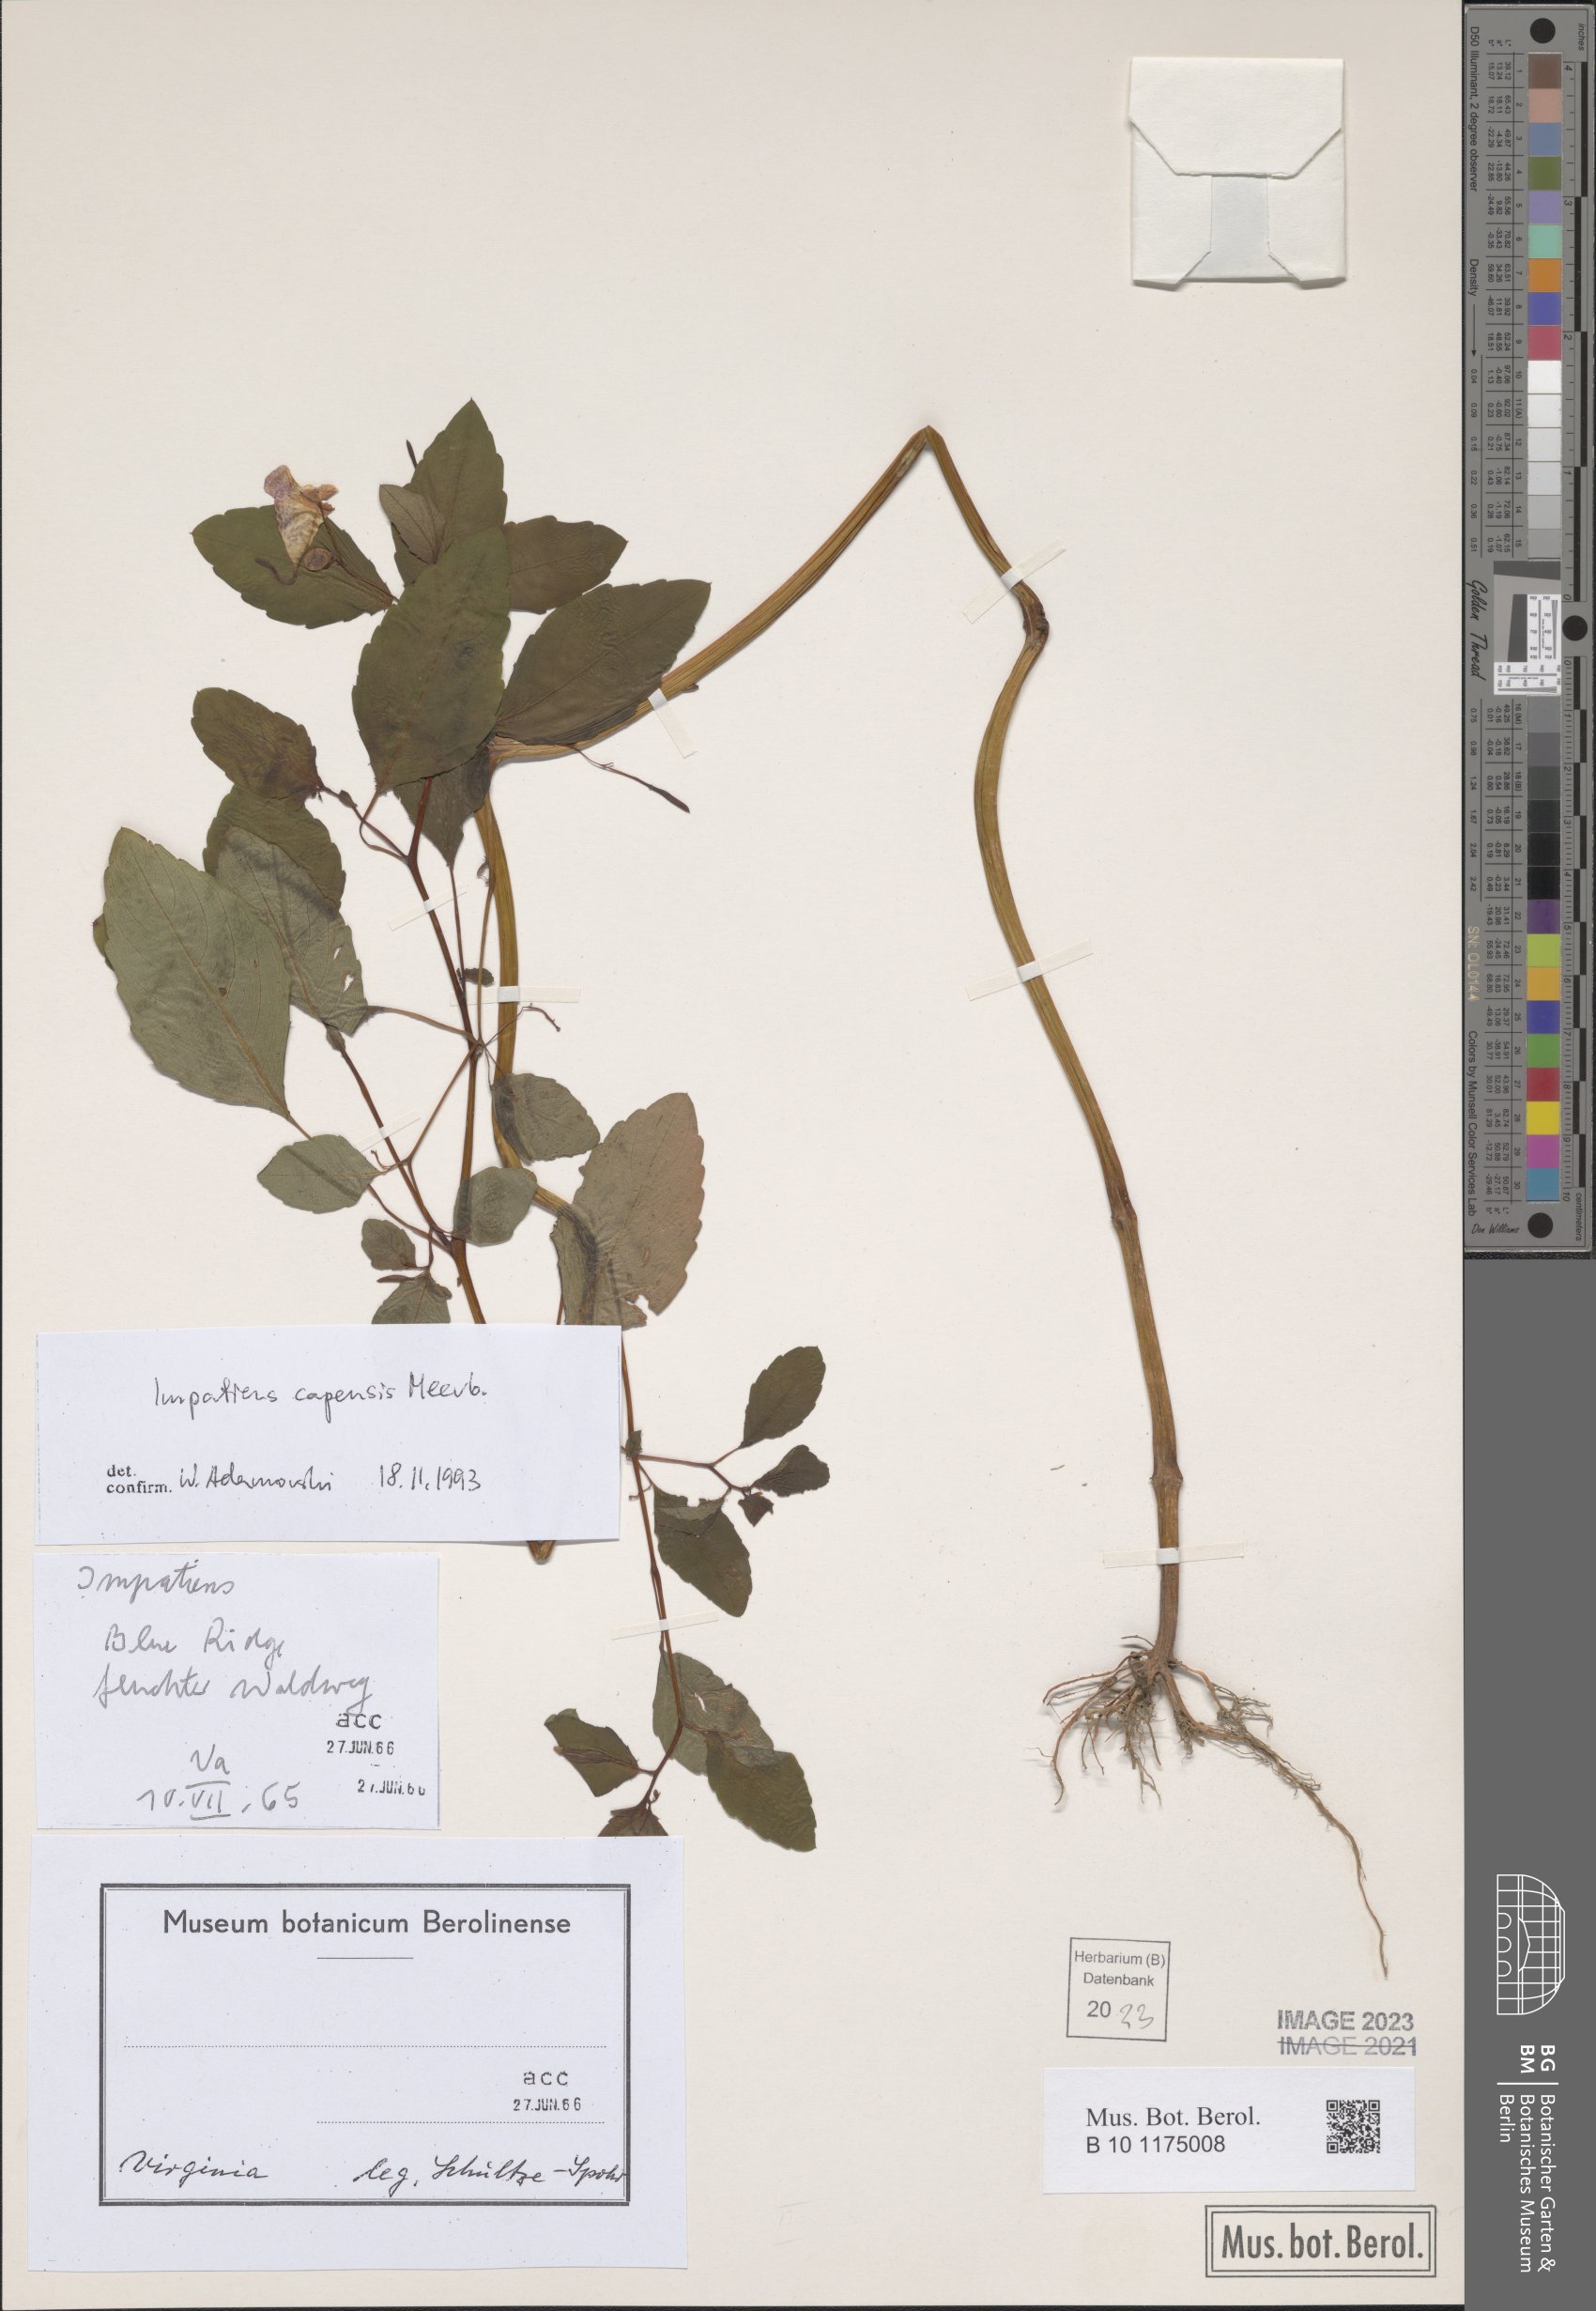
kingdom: Plantae
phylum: Tracheophyta
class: Magnoliopsida
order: Ericales
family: Balsaminaceae
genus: Impatiens
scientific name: Impatiens capensis
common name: Orange balsam
